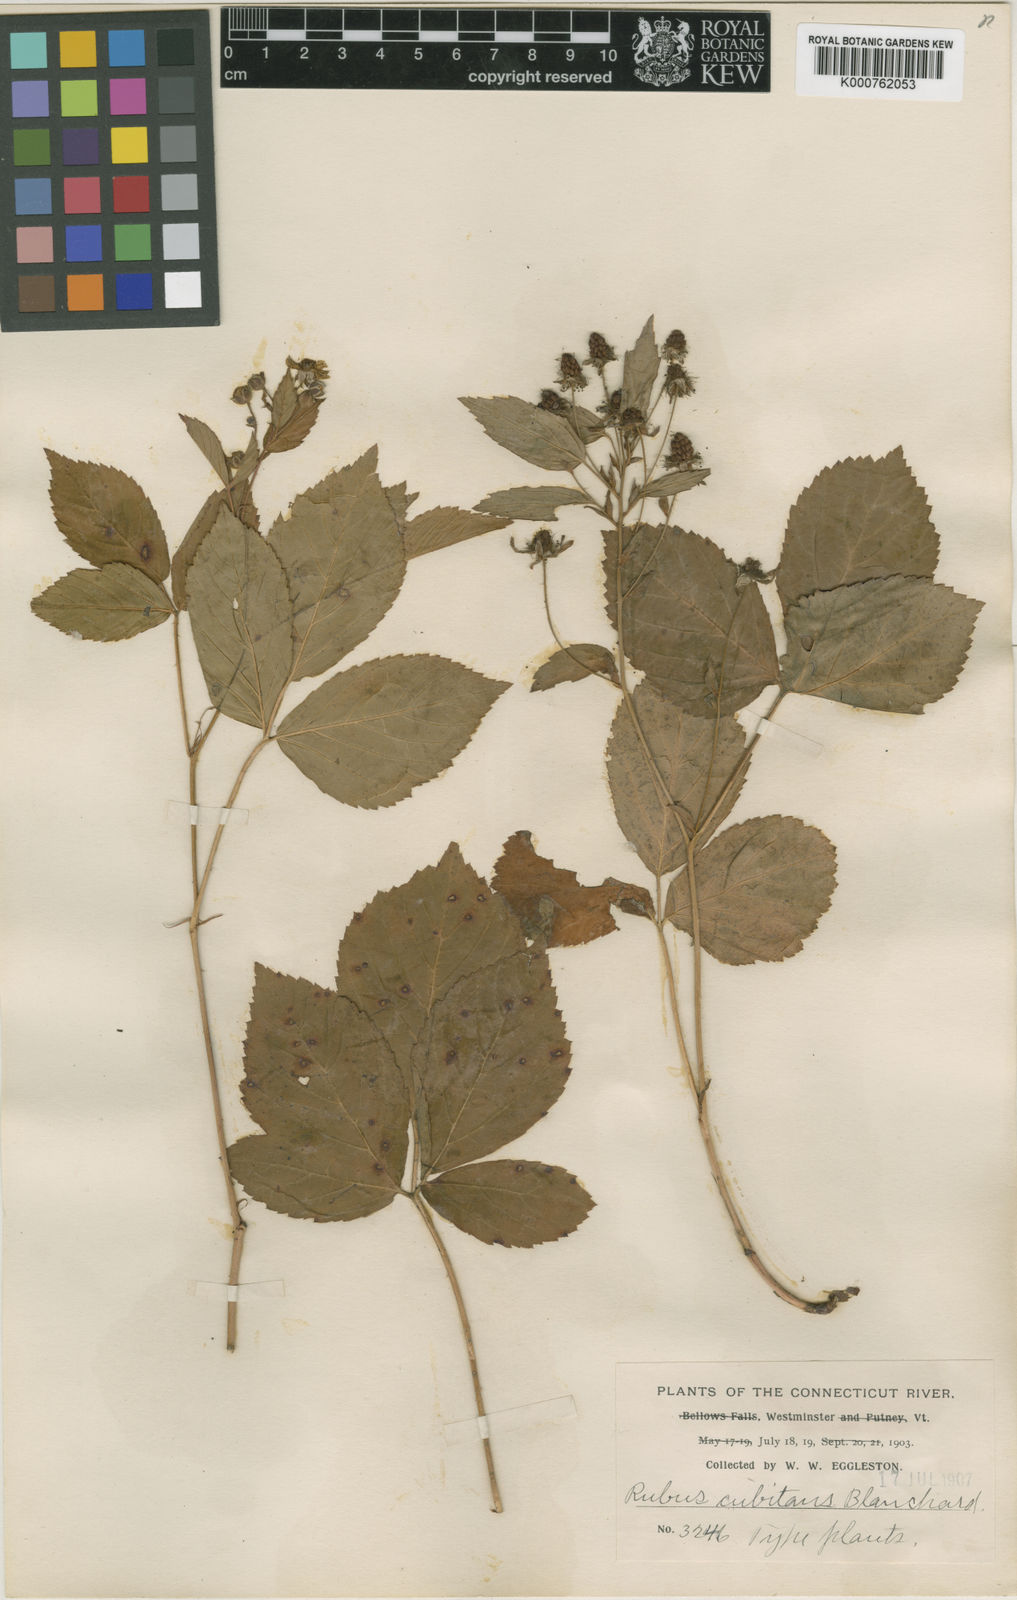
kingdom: Plantae
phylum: Tracheophyta
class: Magnoliopsida
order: Rosales
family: Rosaceae
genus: Rubus
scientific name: Rubus cubitans
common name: Sprawling dewberry
